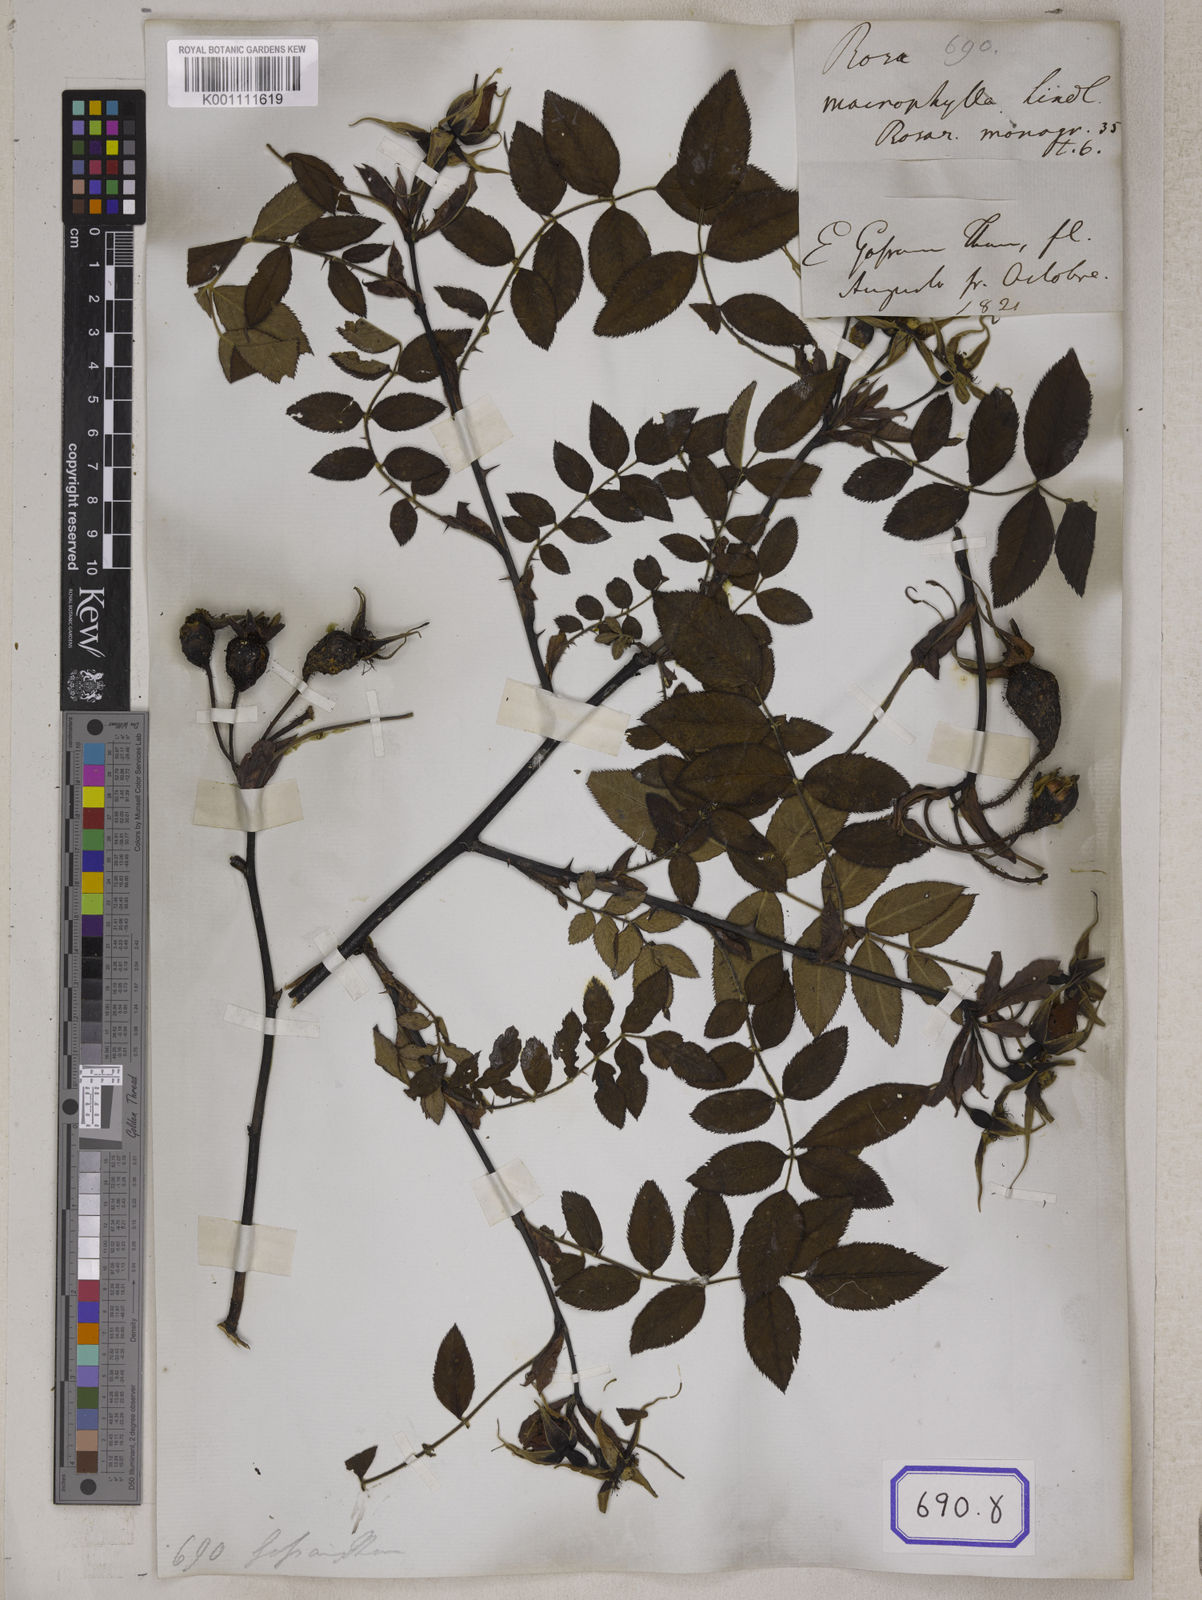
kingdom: Plantae
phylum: Tracheophyta
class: Magnoliopsida
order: Rosales
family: Rosaceae
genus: Rosa
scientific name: Rosa
